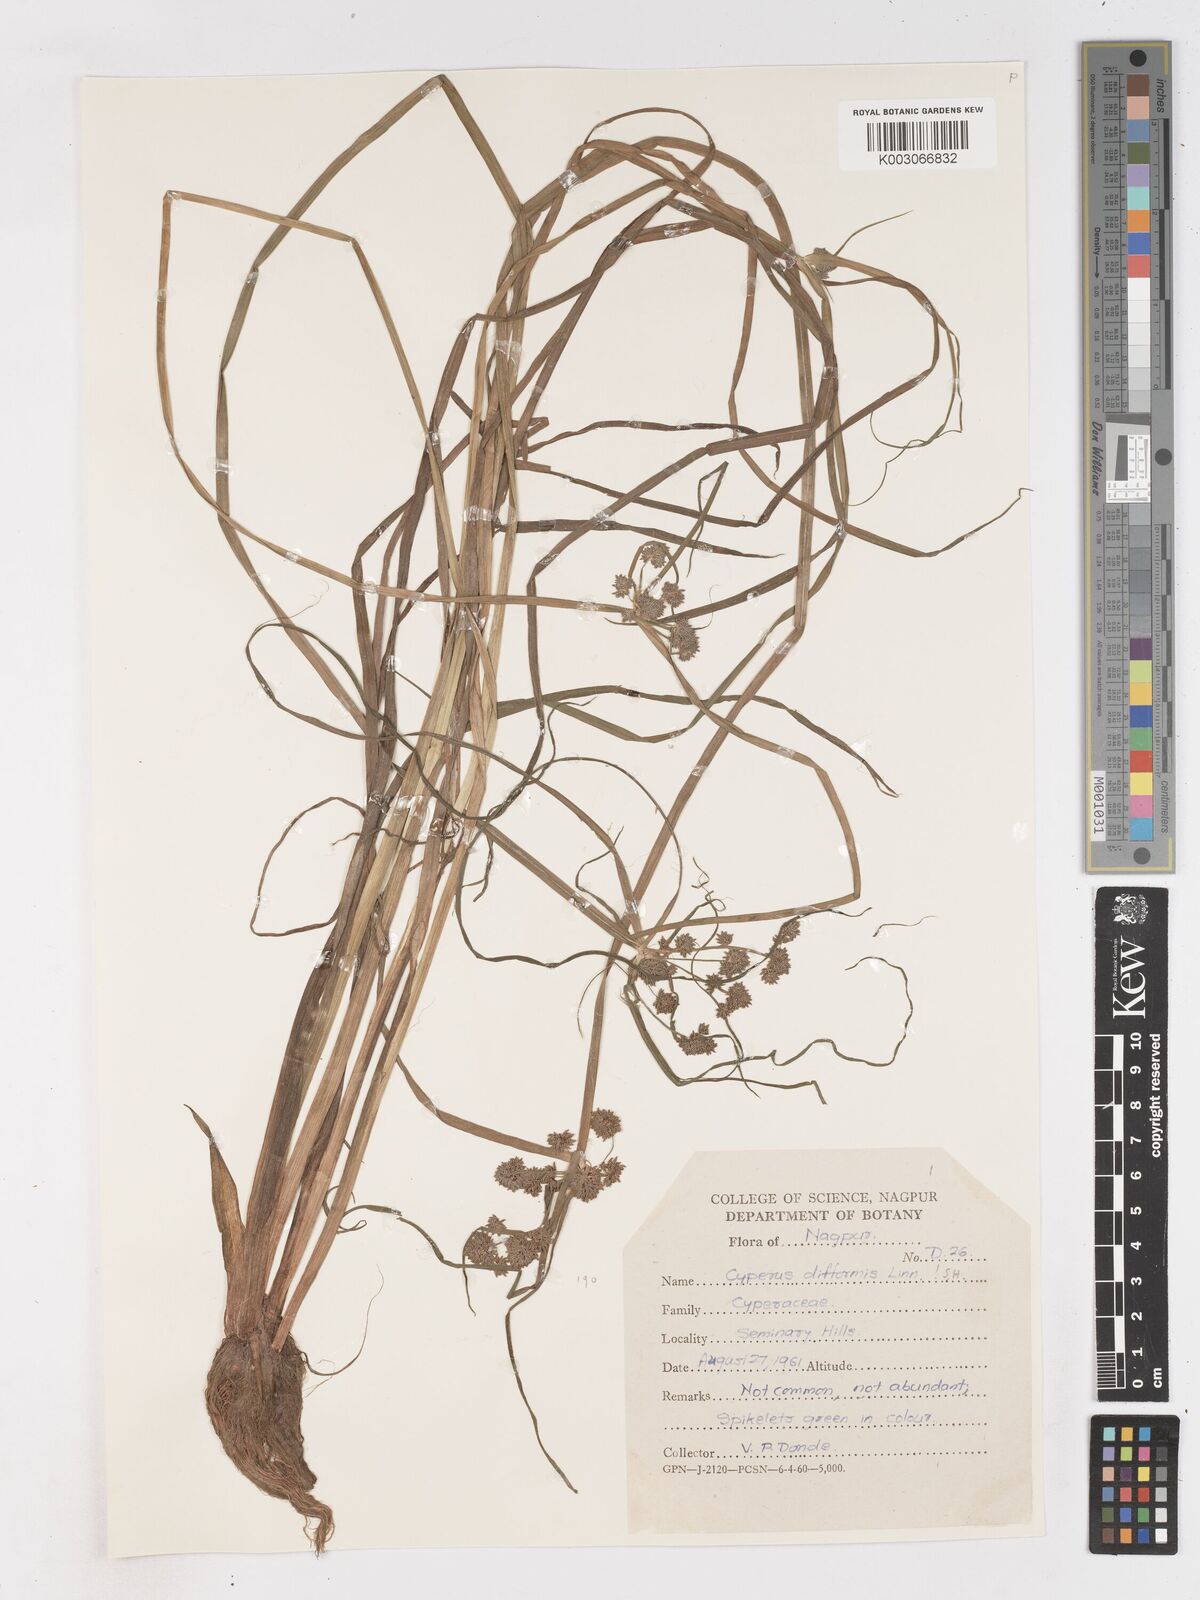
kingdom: Plantae
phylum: Tracheophyta
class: Liliopsida
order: Poales
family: Cyperaceae
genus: Cyperus
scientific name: Cyperus difformis
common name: Variable flatsedge
